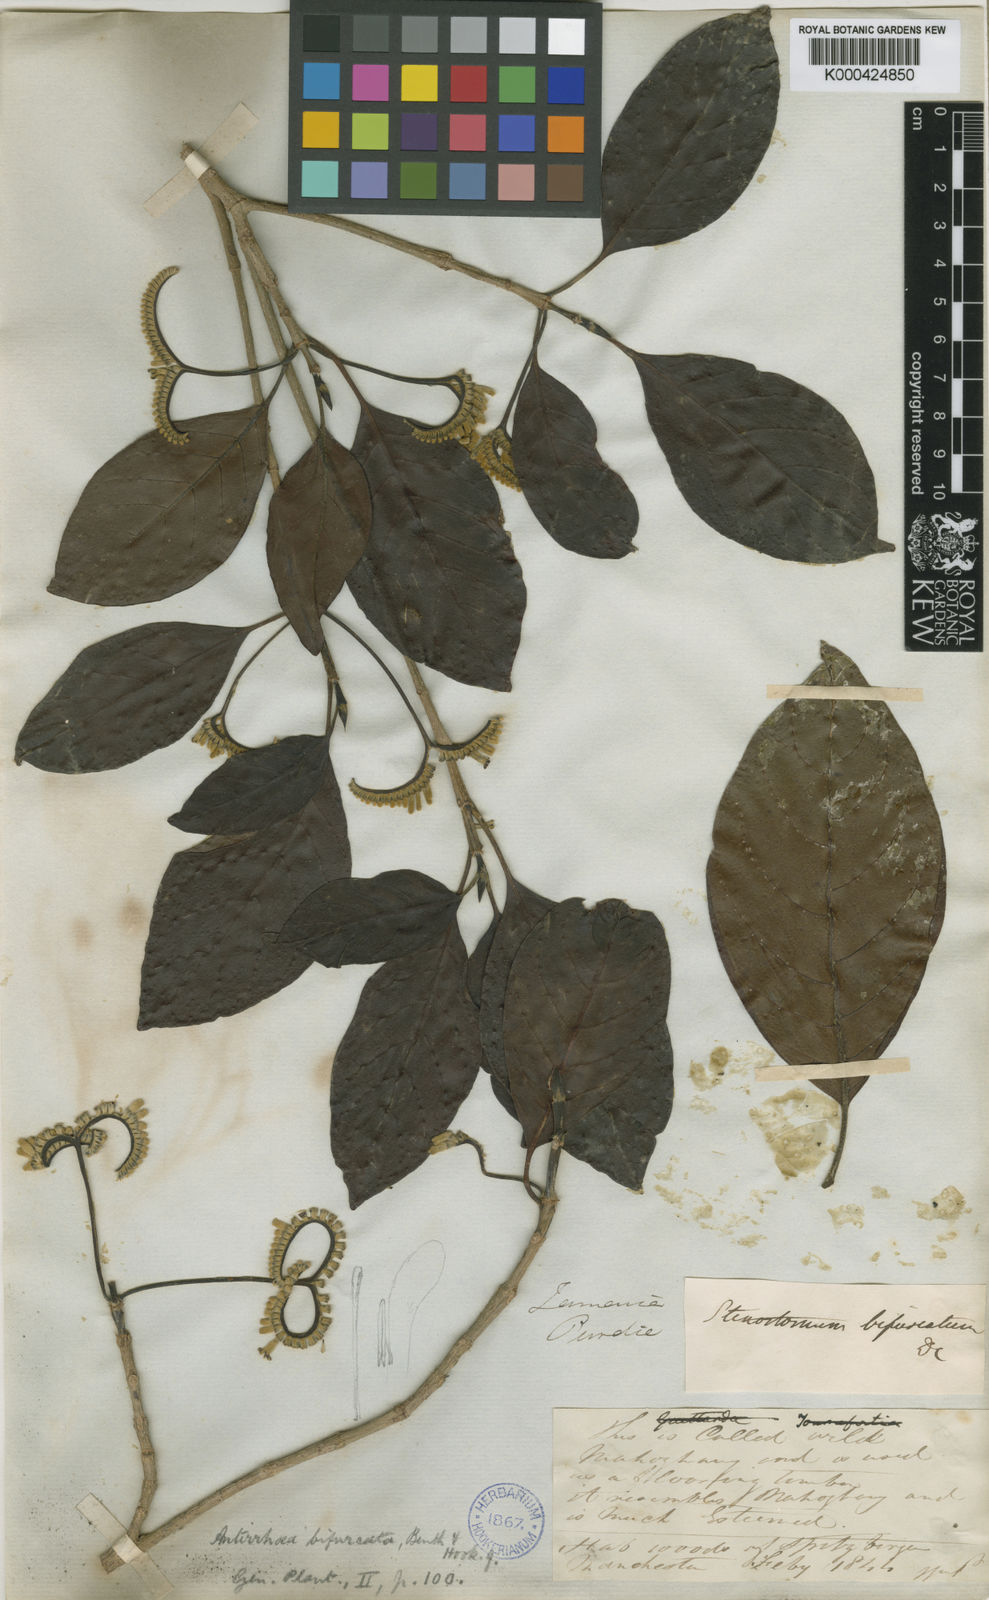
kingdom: Plantae
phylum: Tracheophyta
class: Magnoliopsida
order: Gentianales
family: Rubiaceae
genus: Stenostomum
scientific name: Stenostomum jamaicense
